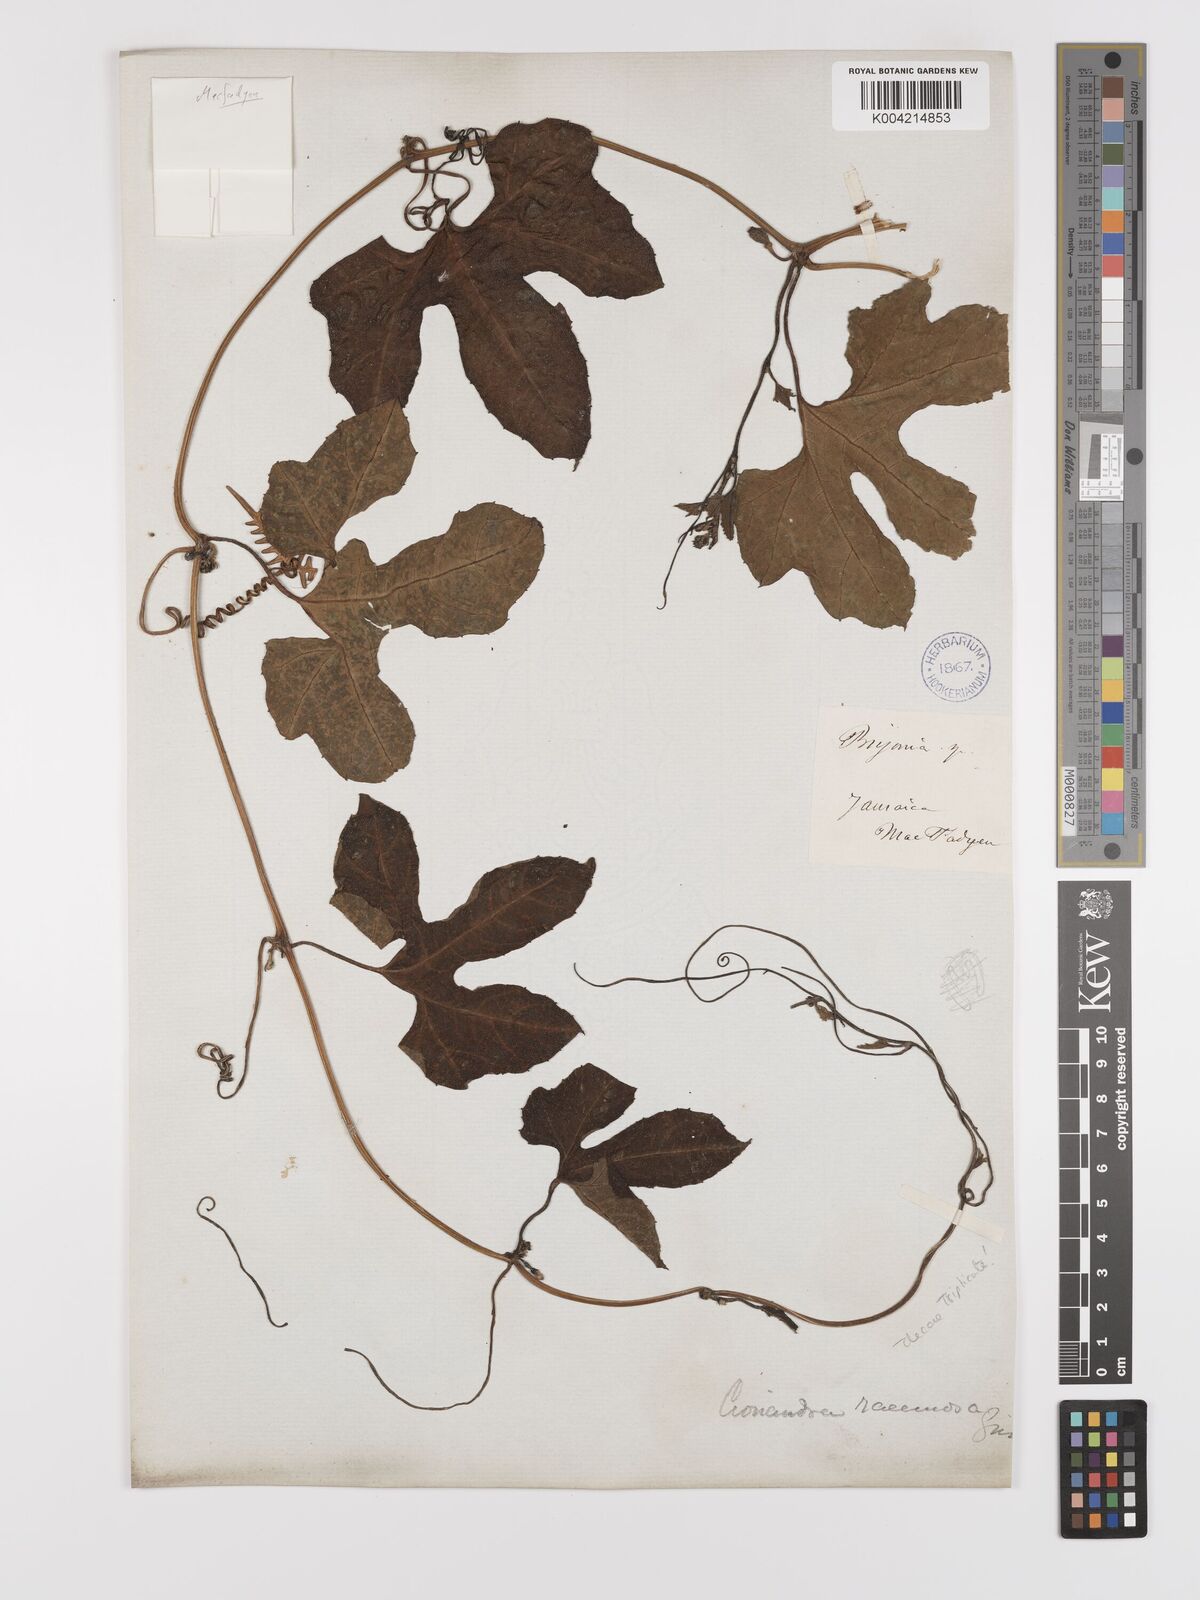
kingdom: Plantae
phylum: Tracheophyta
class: Magnoliopsida
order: Cucurbitales
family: Cucurbitaceae
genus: Diplocyclos
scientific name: Diplocyclos palmatus
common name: Striped-cucumber
